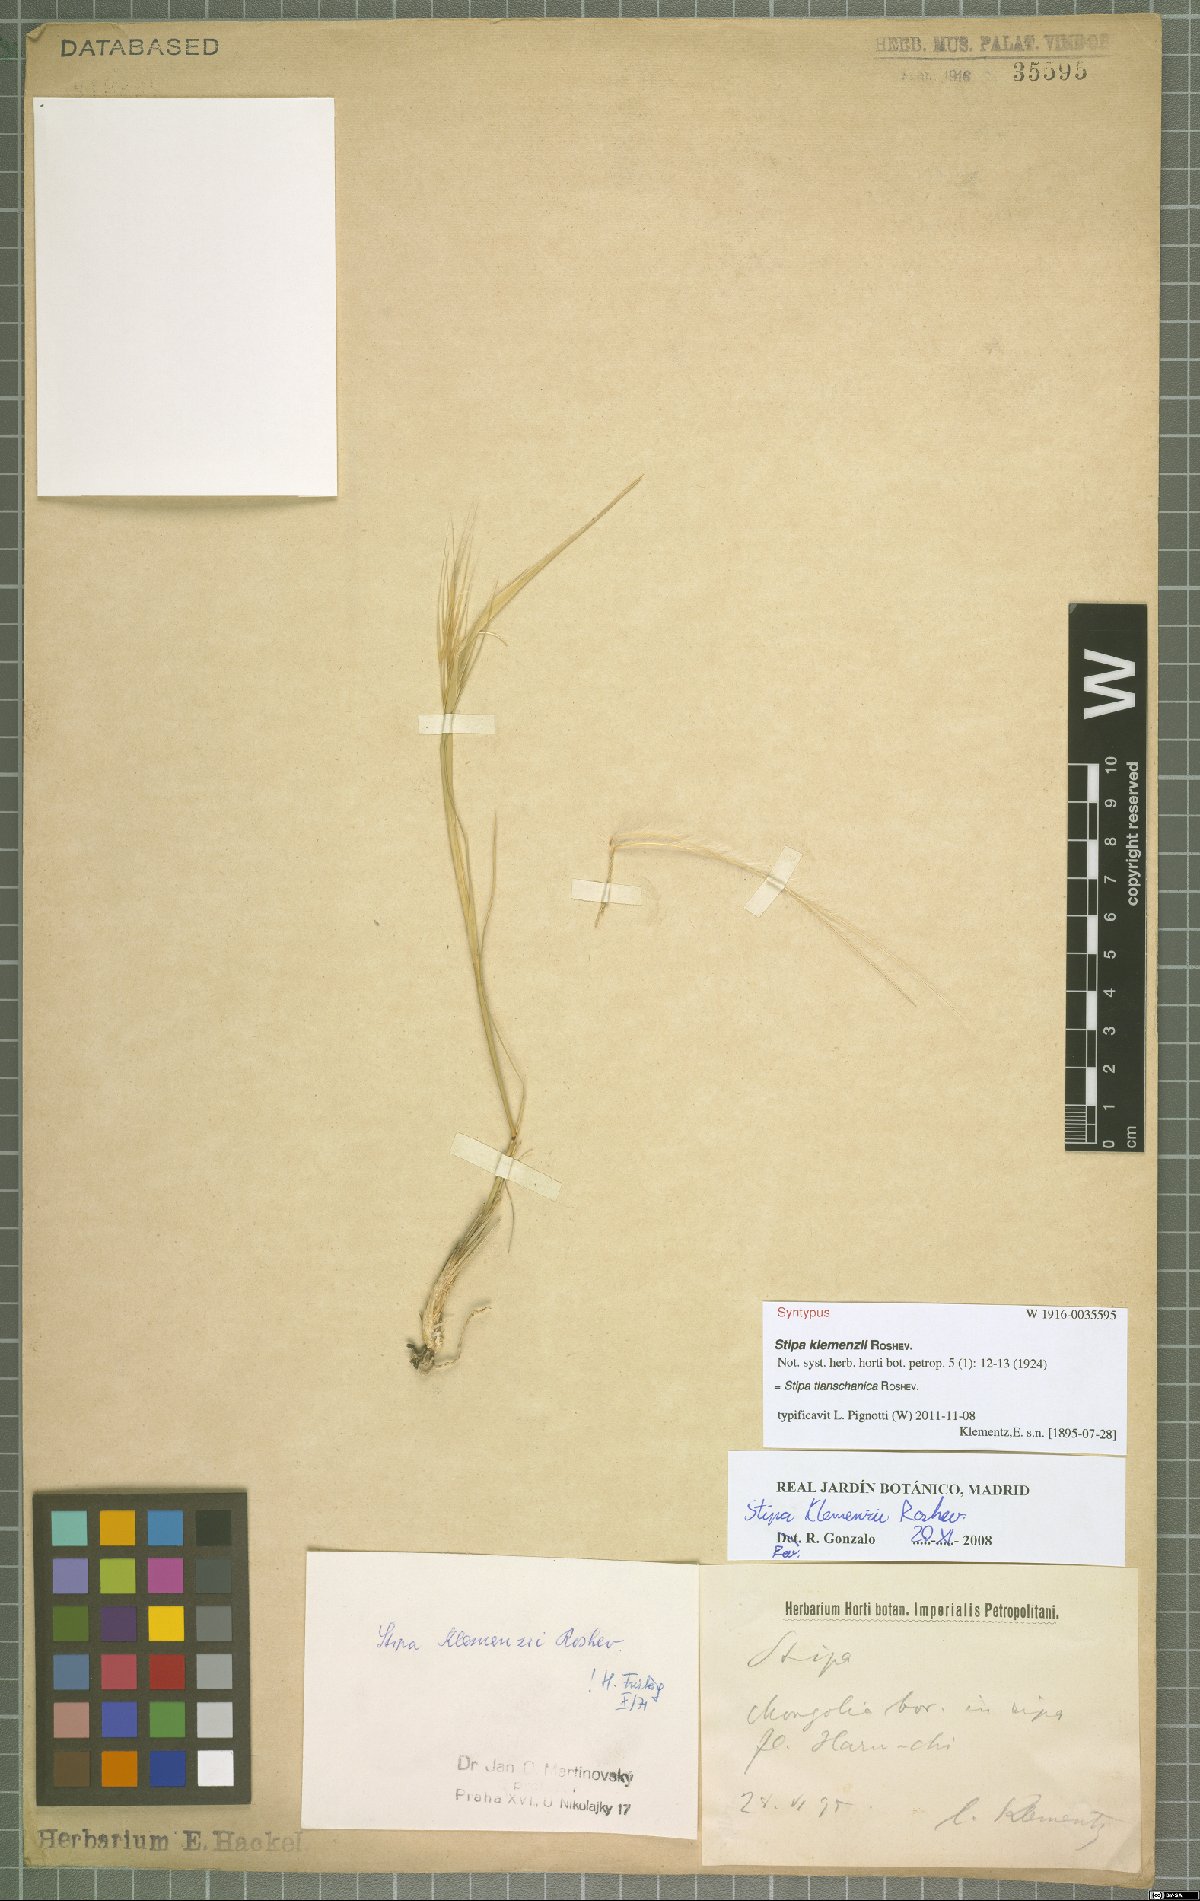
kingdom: Plantae
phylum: Tracheophyta
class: Liliopsida
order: Poales
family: Poaceae
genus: Stipa
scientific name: Stipa tianschanica
